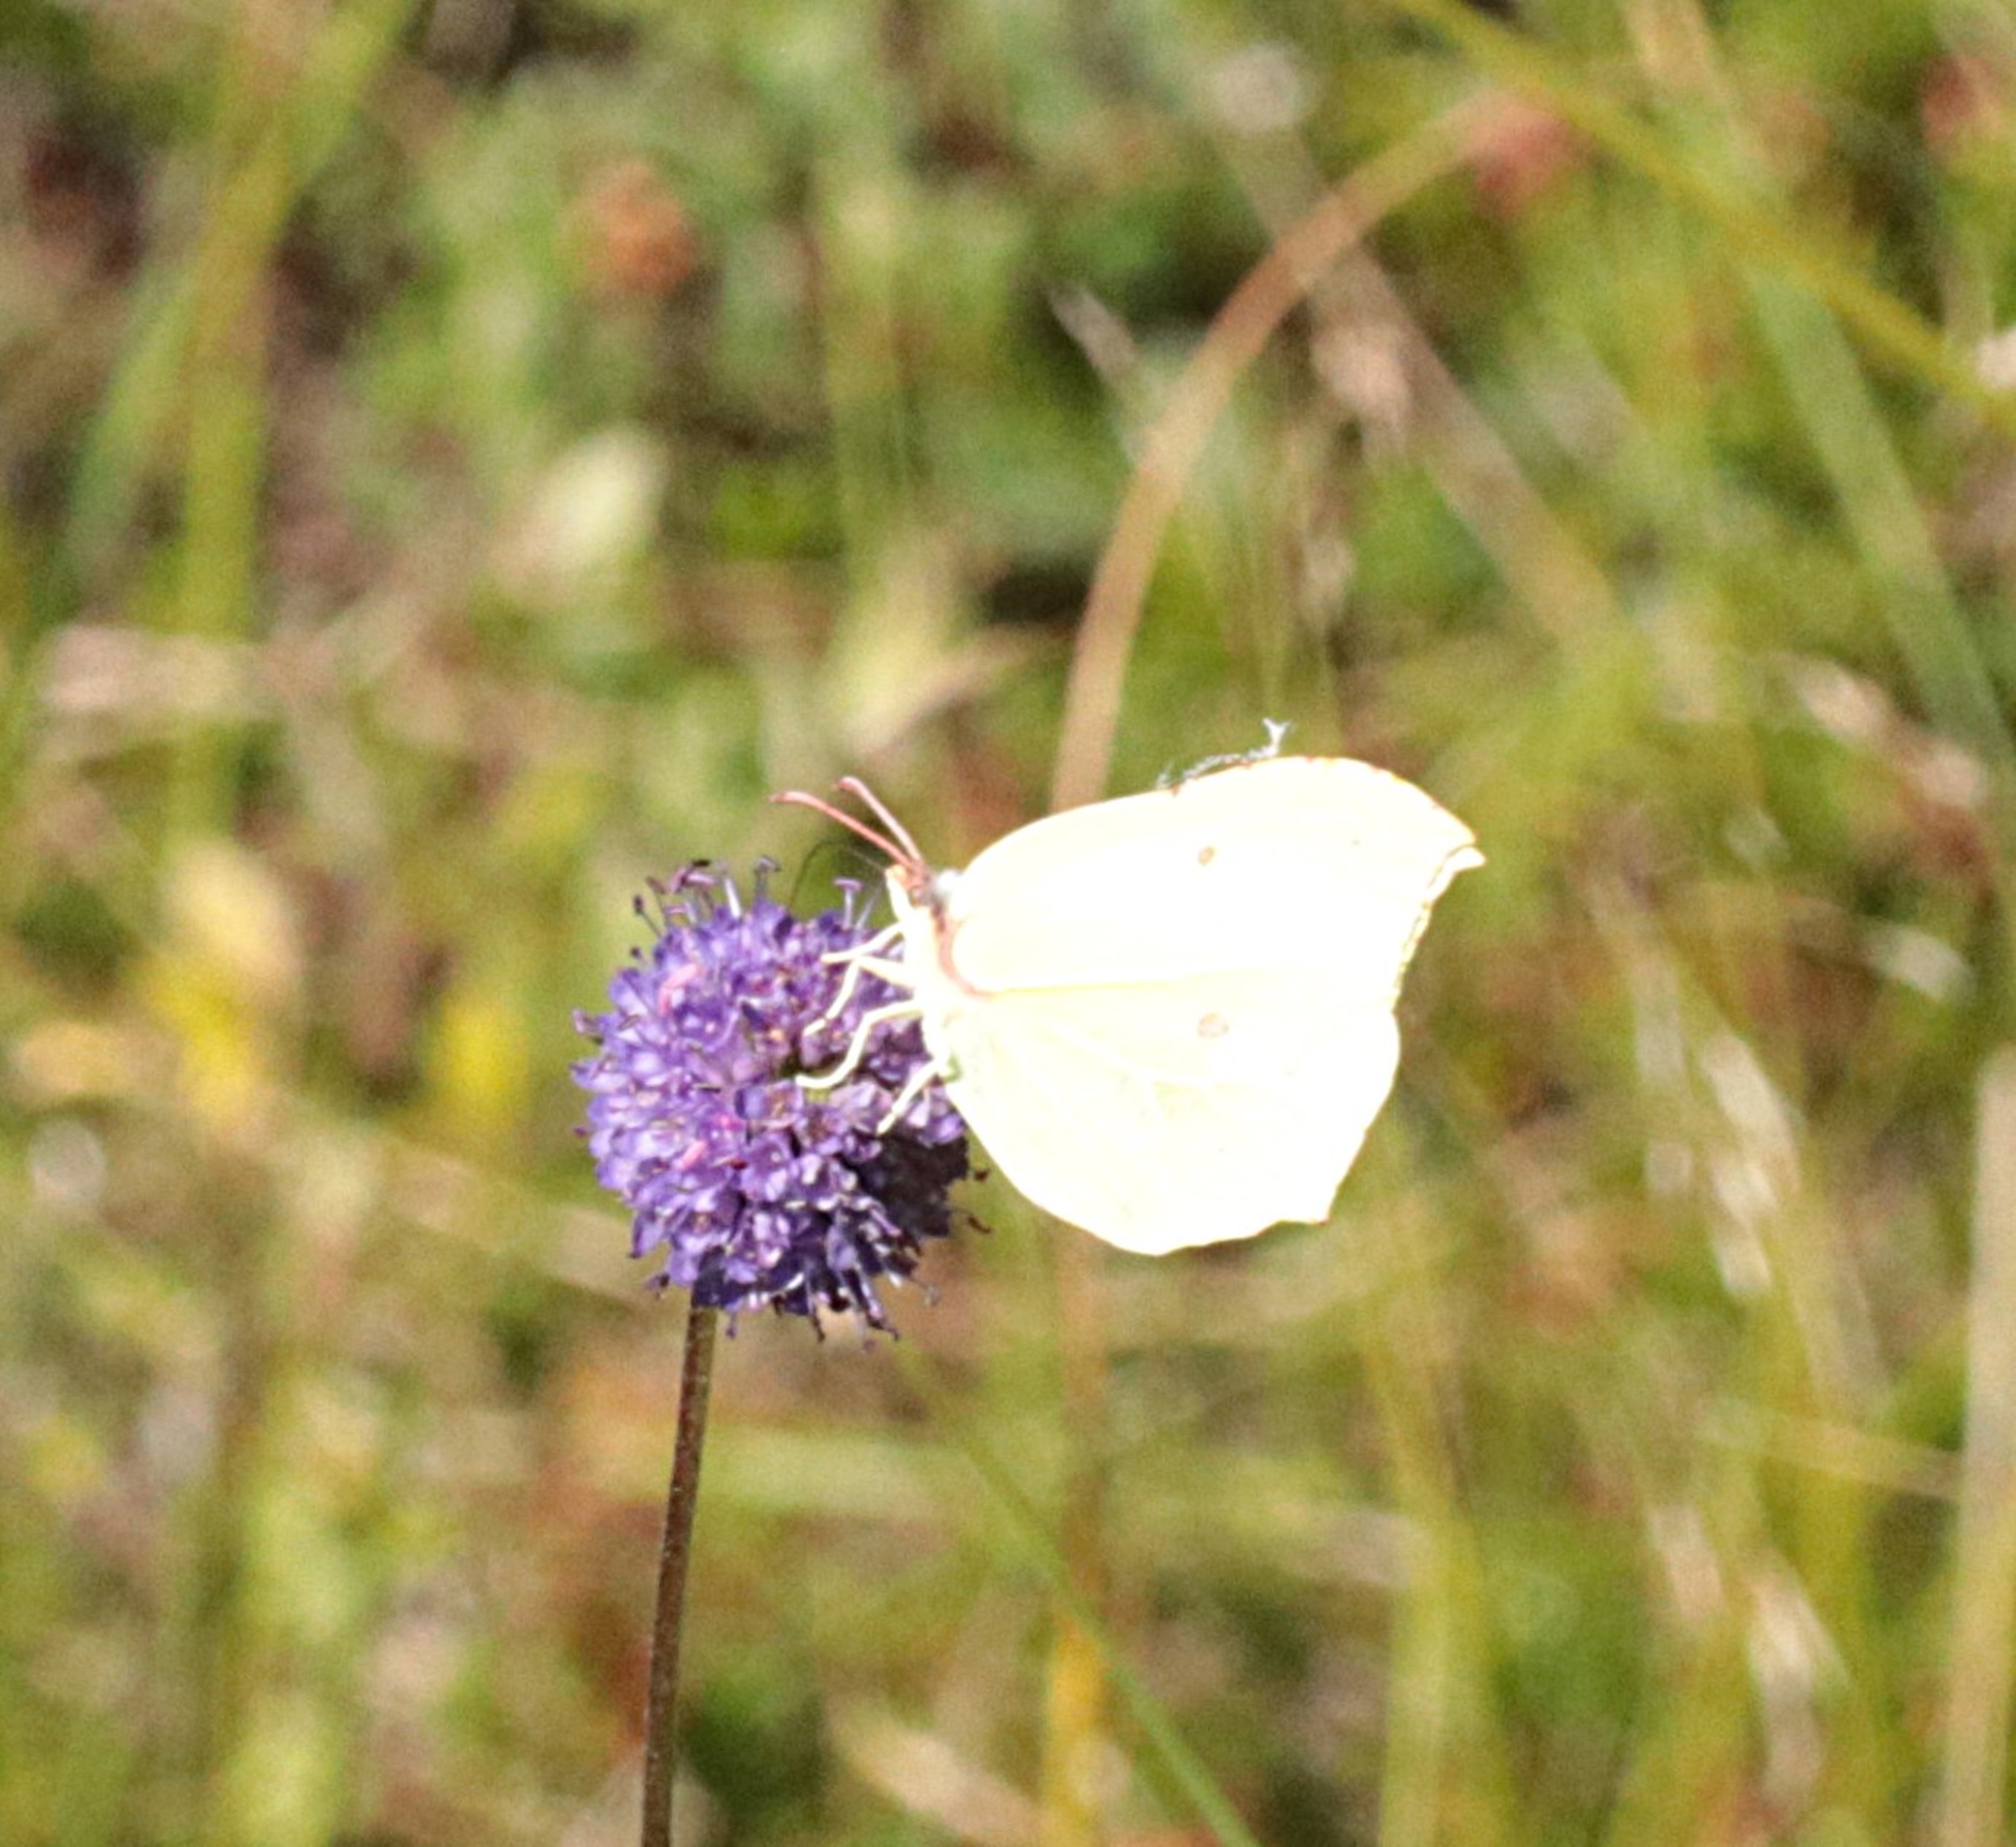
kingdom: Animalia
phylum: Arthropoda
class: Insecta
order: Lepidoptera
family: Pieridae
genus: Gonepteryx
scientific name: Gonepteryx rhamni
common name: Citronsommerfugl
